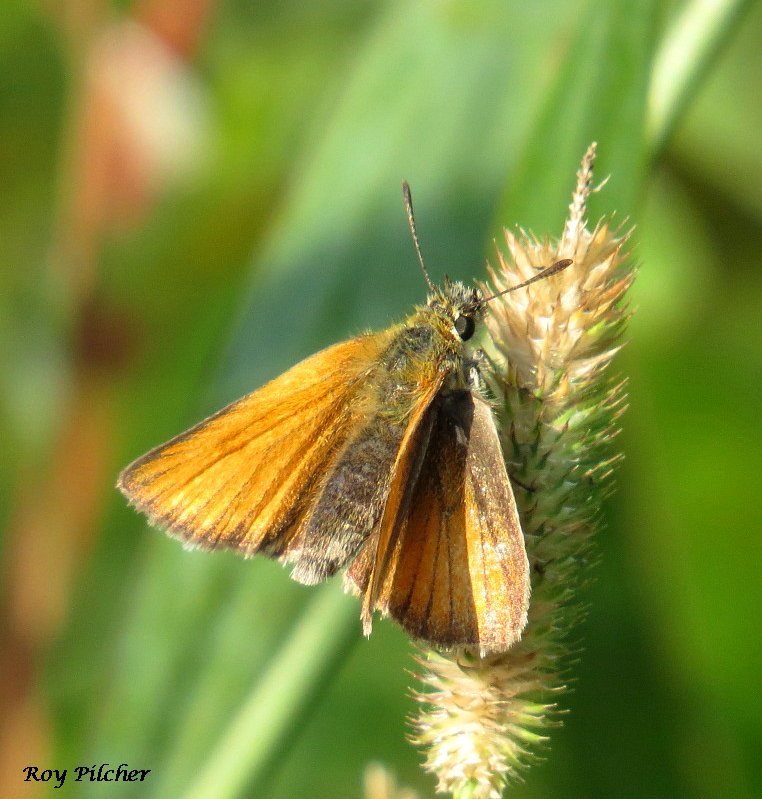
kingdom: Animalia
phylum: Arthropoda
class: Insecta
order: Lepidoptera
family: Hesperiidae
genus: Thymelicus
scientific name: Thymelicus lineola
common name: European Skipper
